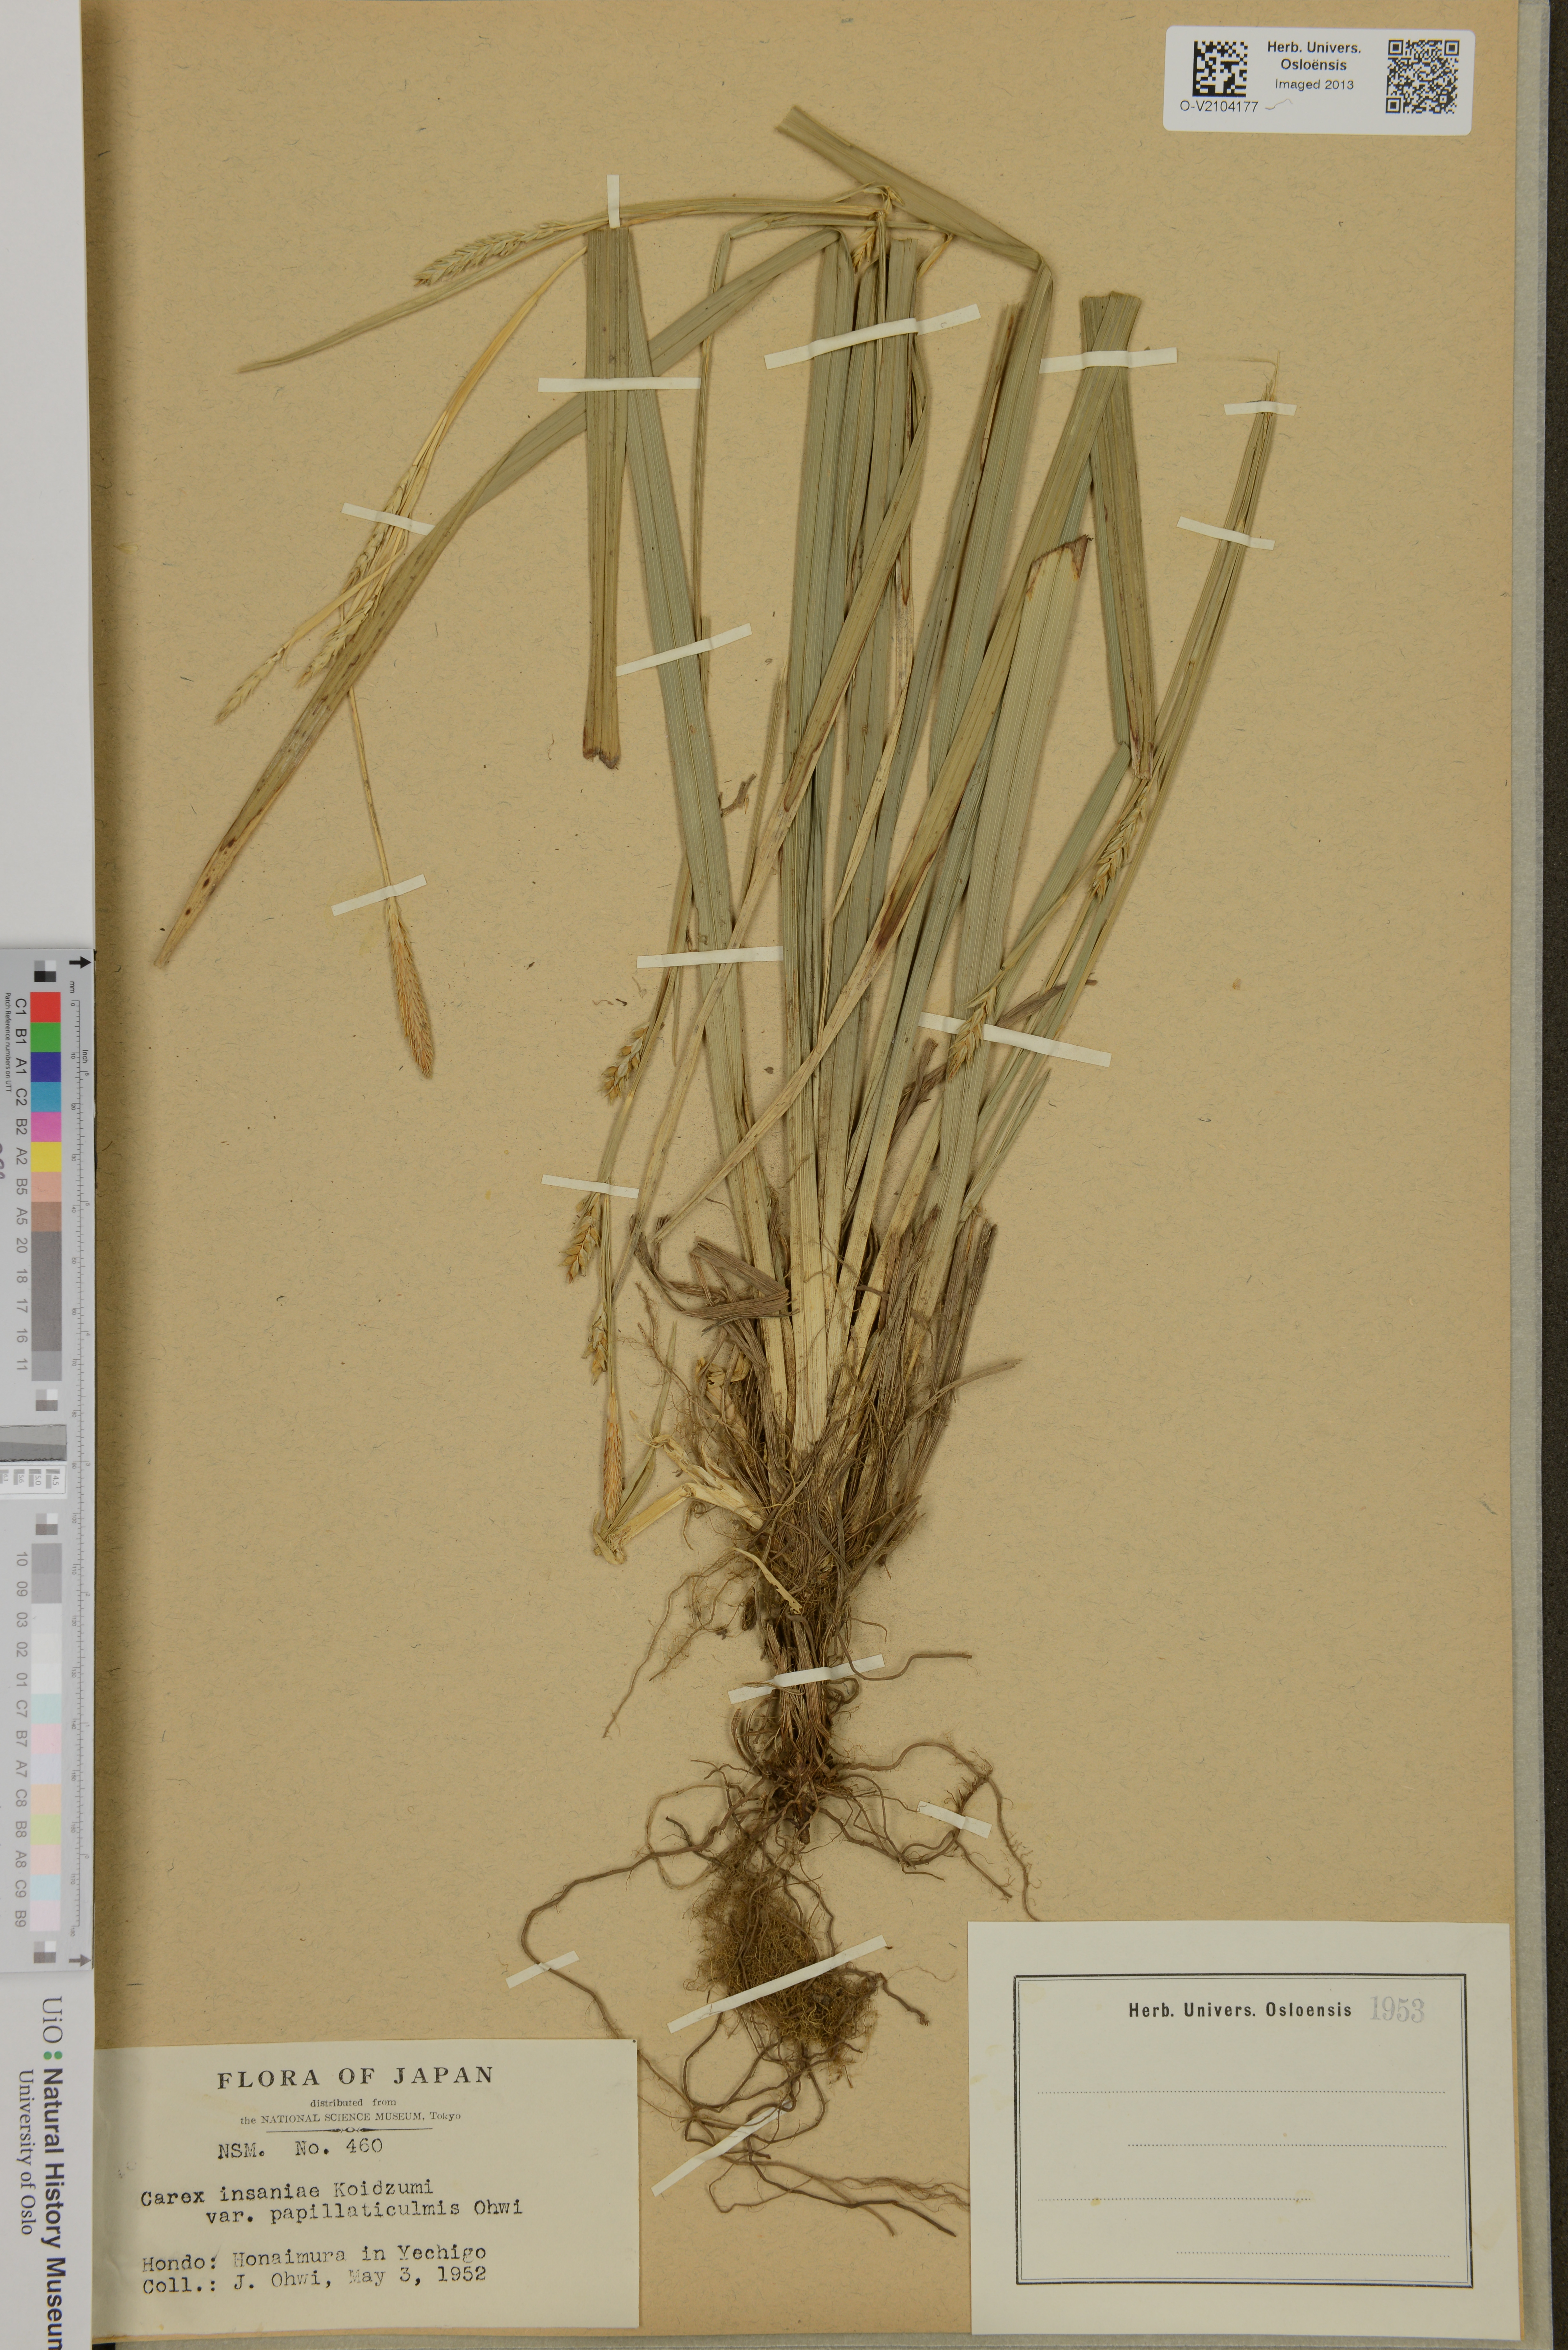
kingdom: Plantae
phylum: Tracheophyta
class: Liliopsida
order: Poales
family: Cyperaceae
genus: Carex
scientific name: Carex insaniae
